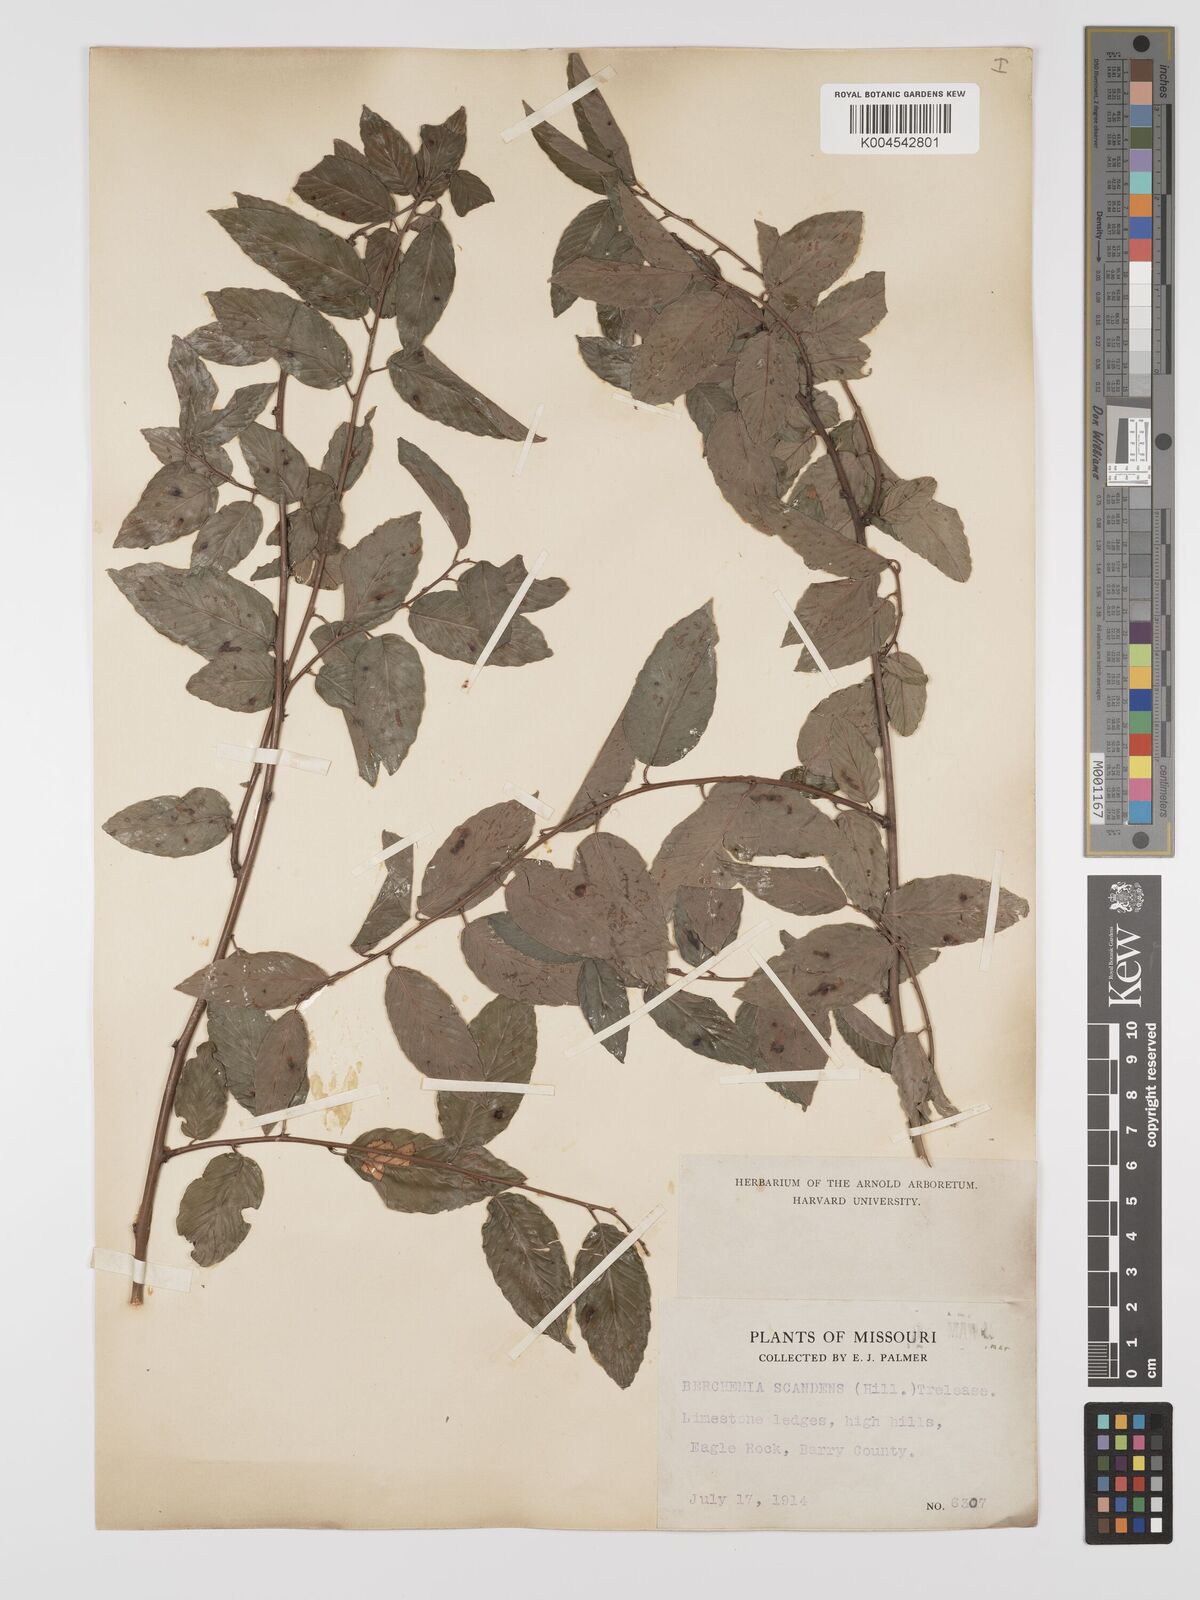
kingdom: Plantae
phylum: Tracheophyta
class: Magnoliopsida
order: Rosales
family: Rhamnaceae
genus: Berchemia
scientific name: Berchemia scandens
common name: Supplejack
